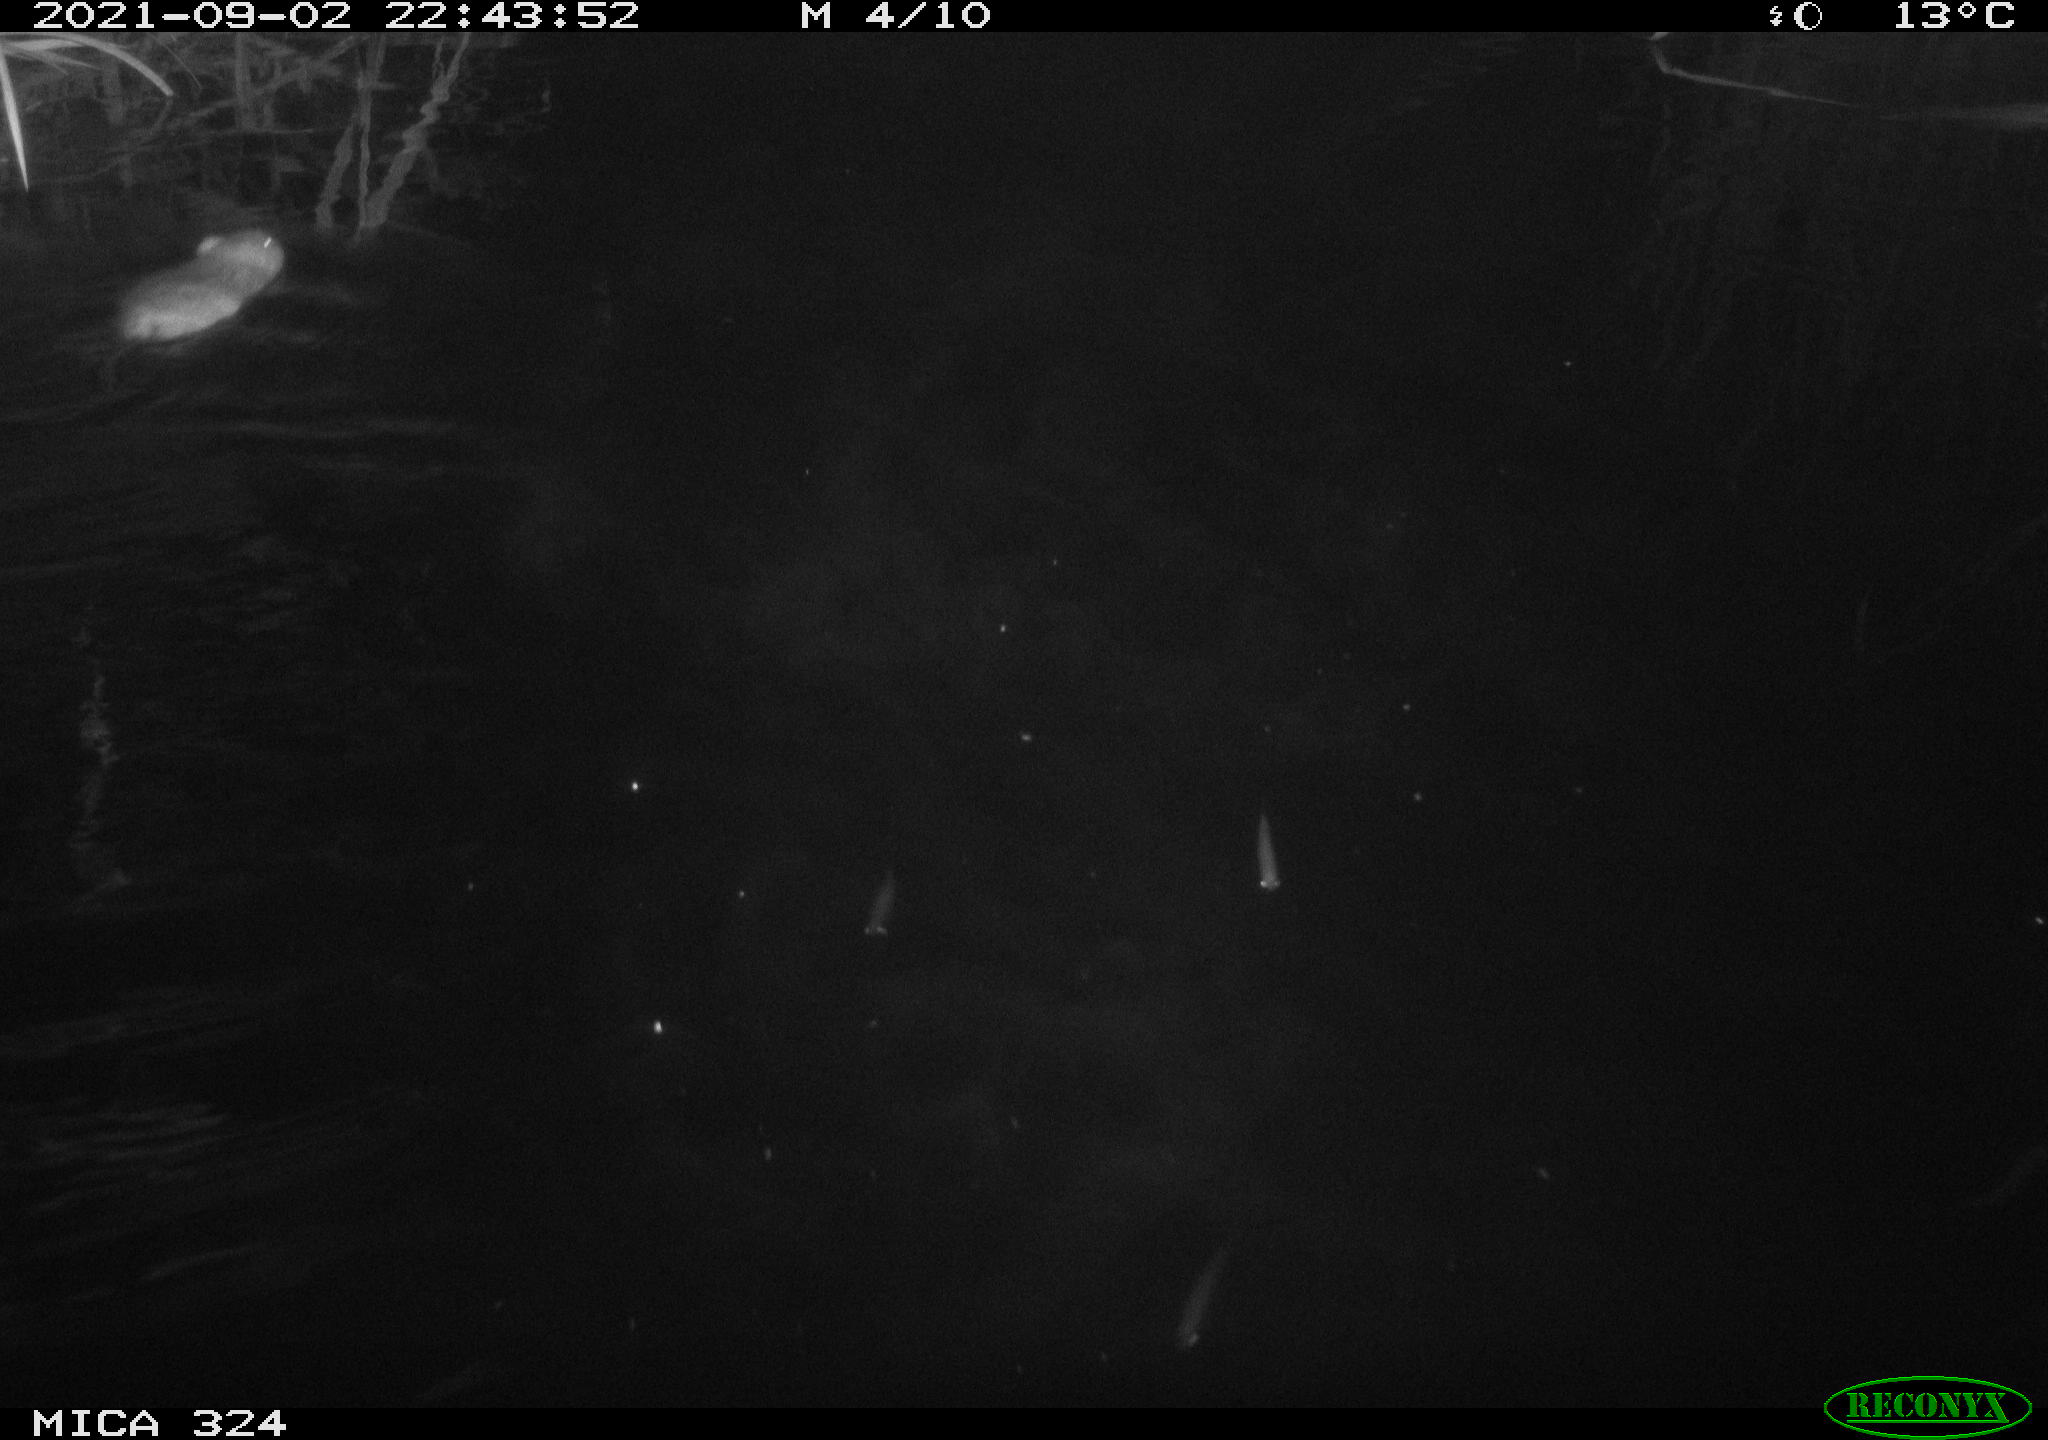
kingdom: Animalia
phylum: Chordata
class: Mammalia
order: Rodentia
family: Cricetidae
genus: Ondatra
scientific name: Ondatra zibethicus
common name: Muskrat
